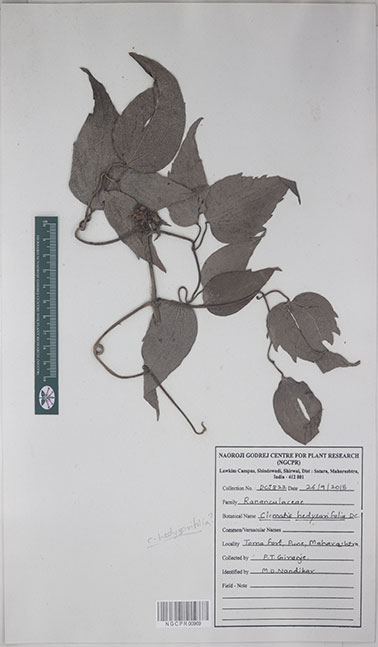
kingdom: Plantae
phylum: Tracheophyta
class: Magnoliopsida
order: Ranunculales
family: Ranunculaceae
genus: Clematis
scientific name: Clematis hedysarifolia
